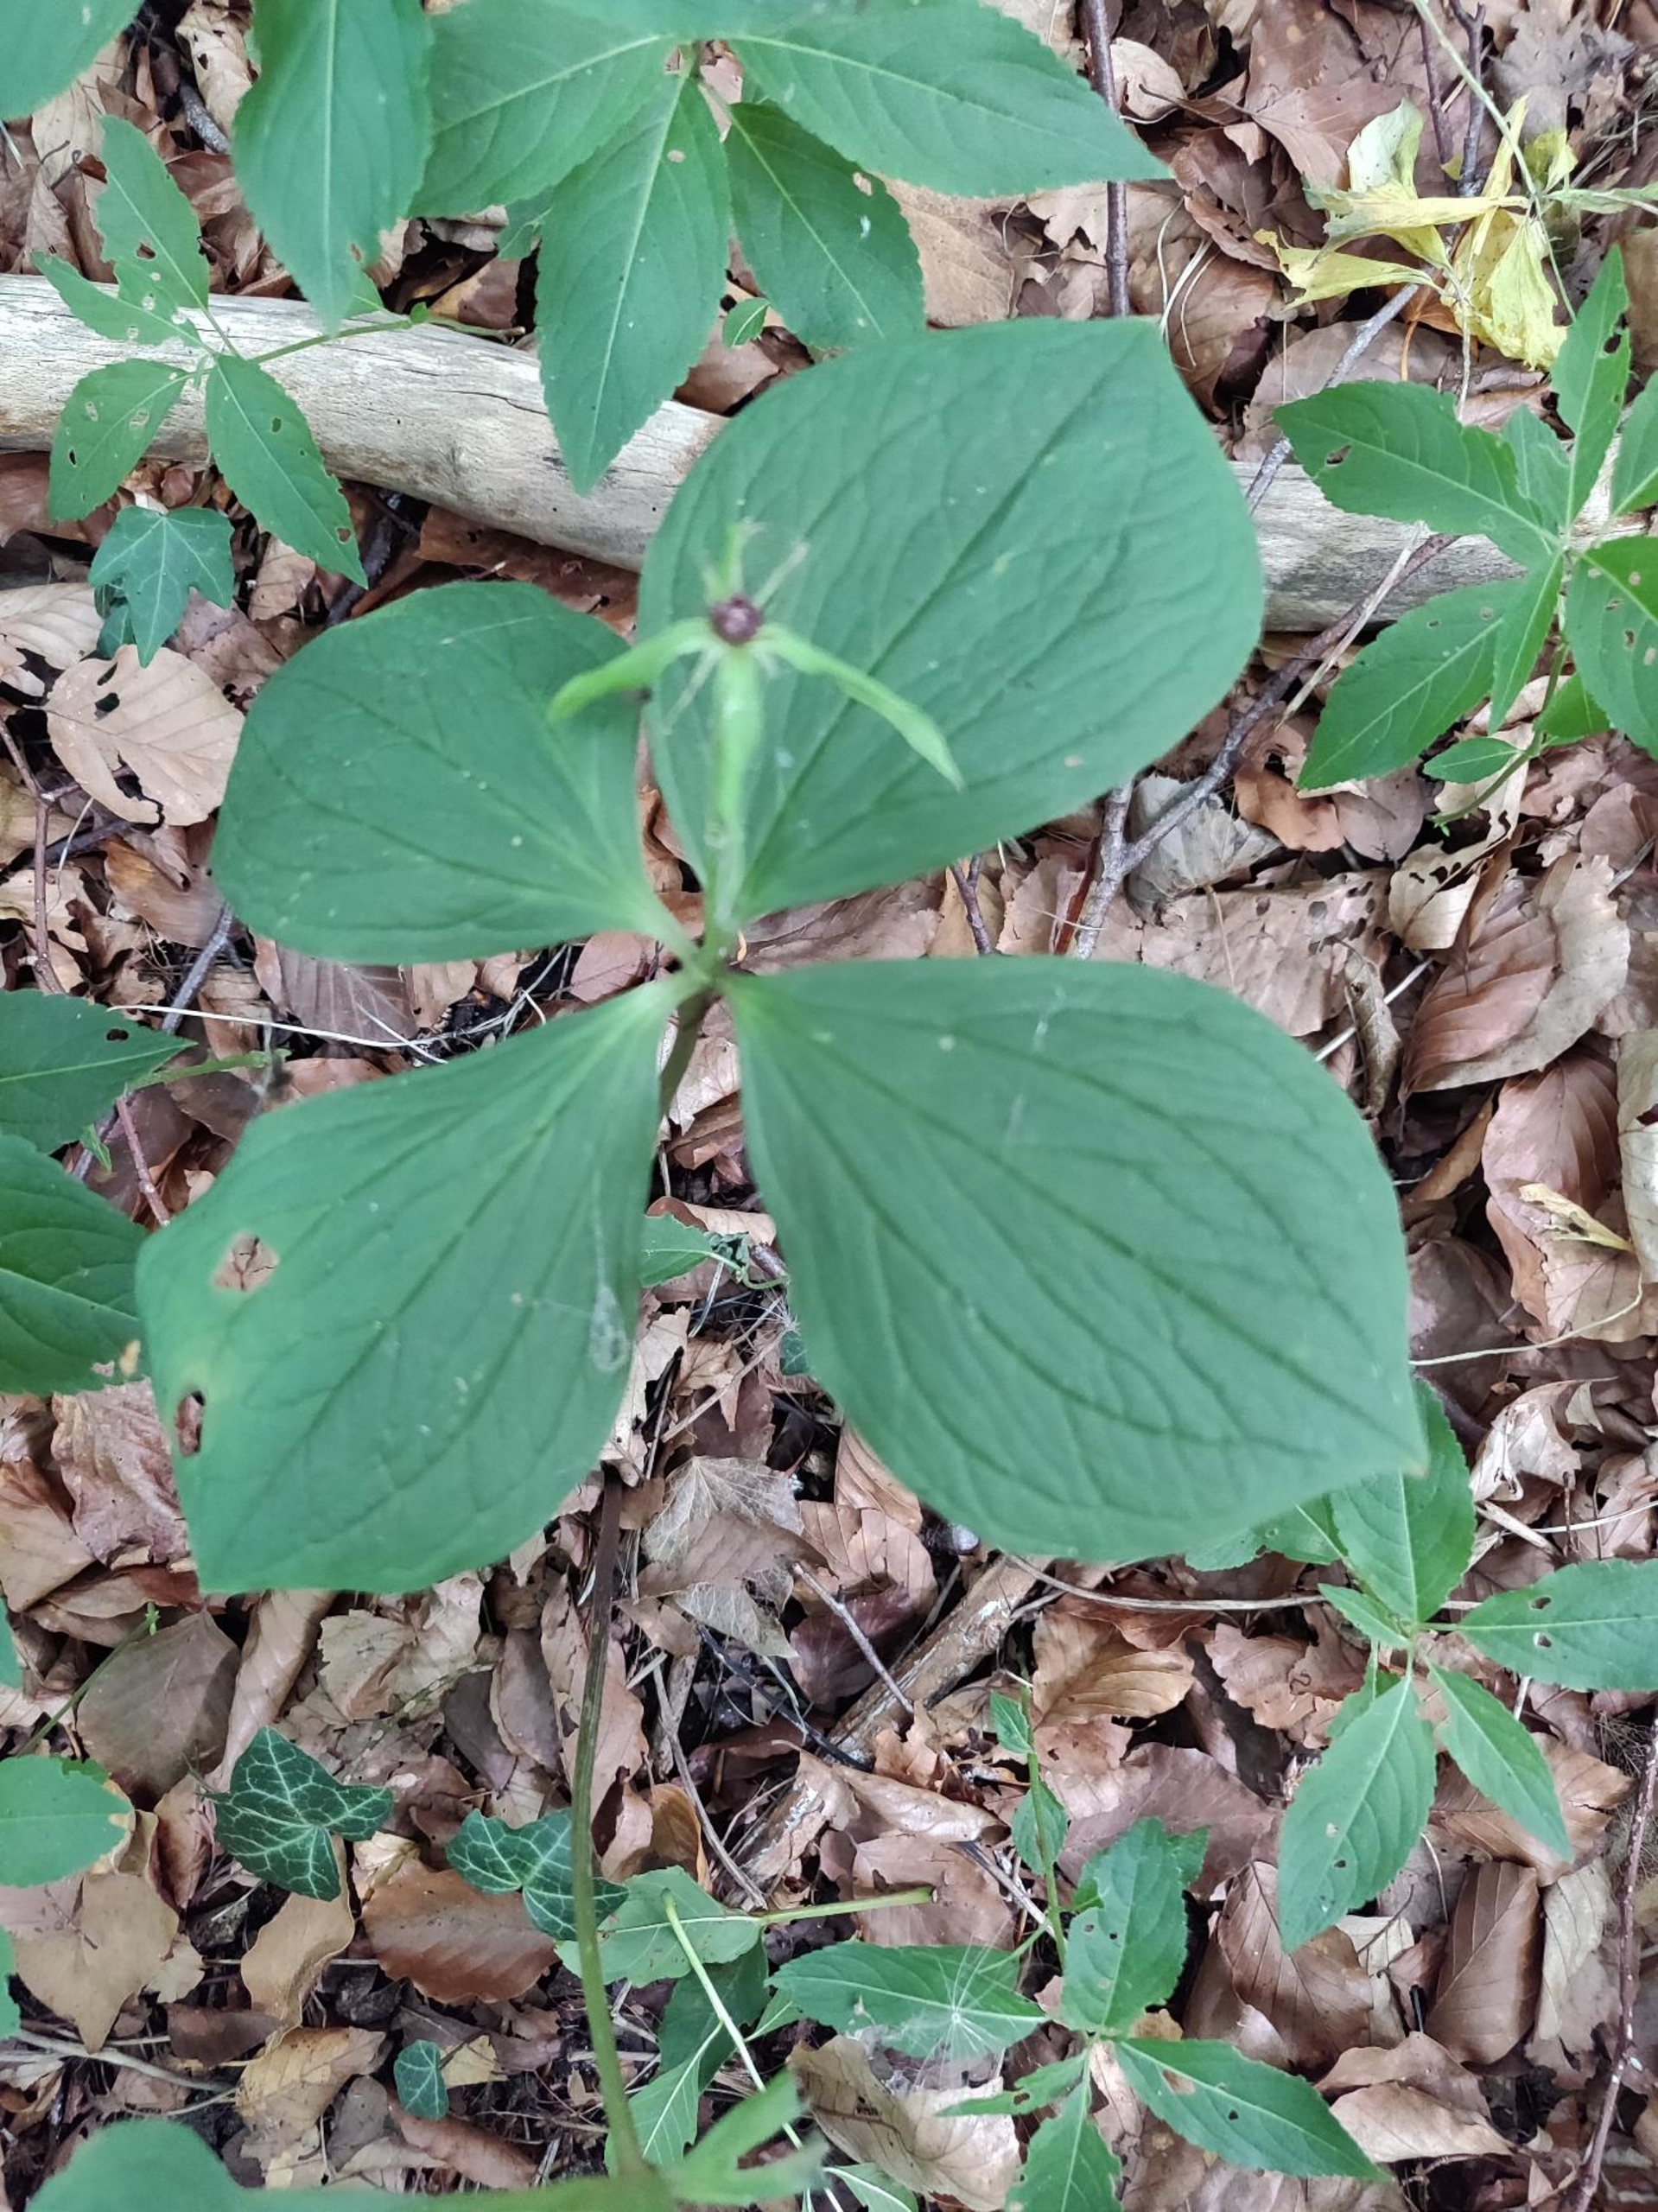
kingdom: Plantae
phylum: Tracheophyta
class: Liliopsida
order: Liliales
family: Melanthiaceae
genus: Paris
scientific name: Paris quadrifolia
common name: Firblad
